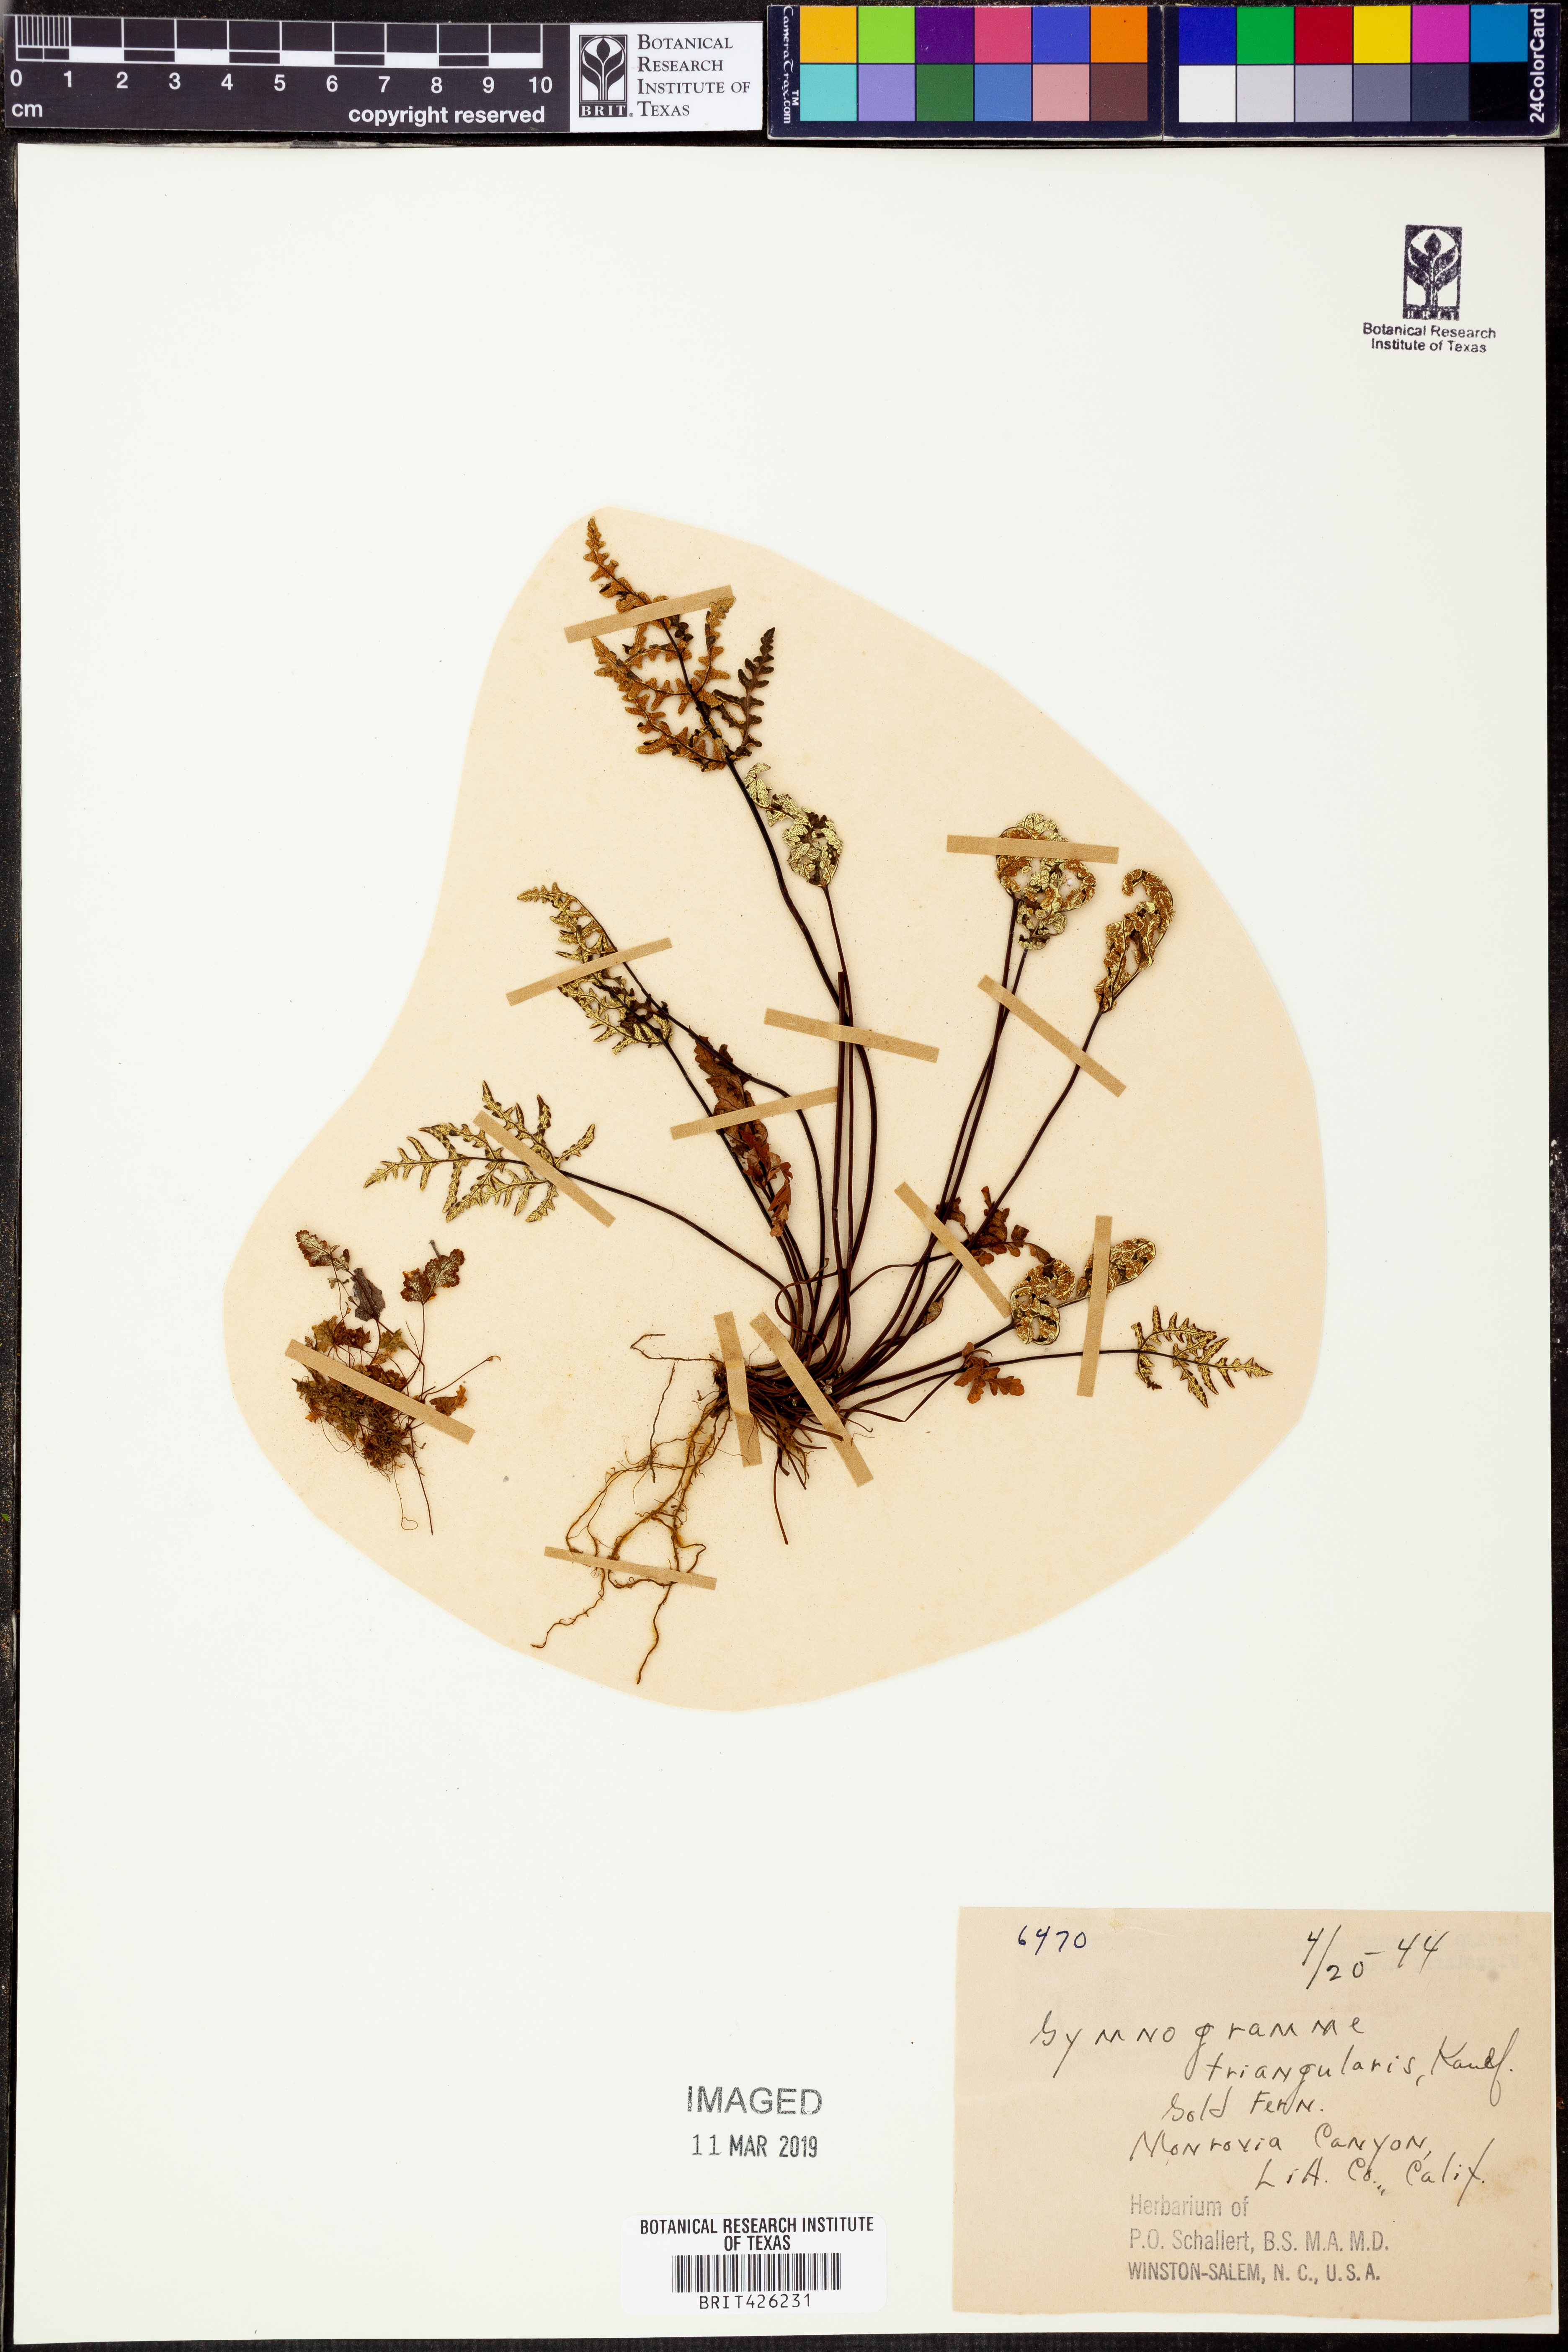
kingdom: Plantae
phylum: Tracheophyta
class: Polypodiopsida
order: Polypodiales
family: Pteridaceae
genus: Pentagramma
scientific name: Pentagramma triangularis
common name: Gold fern
